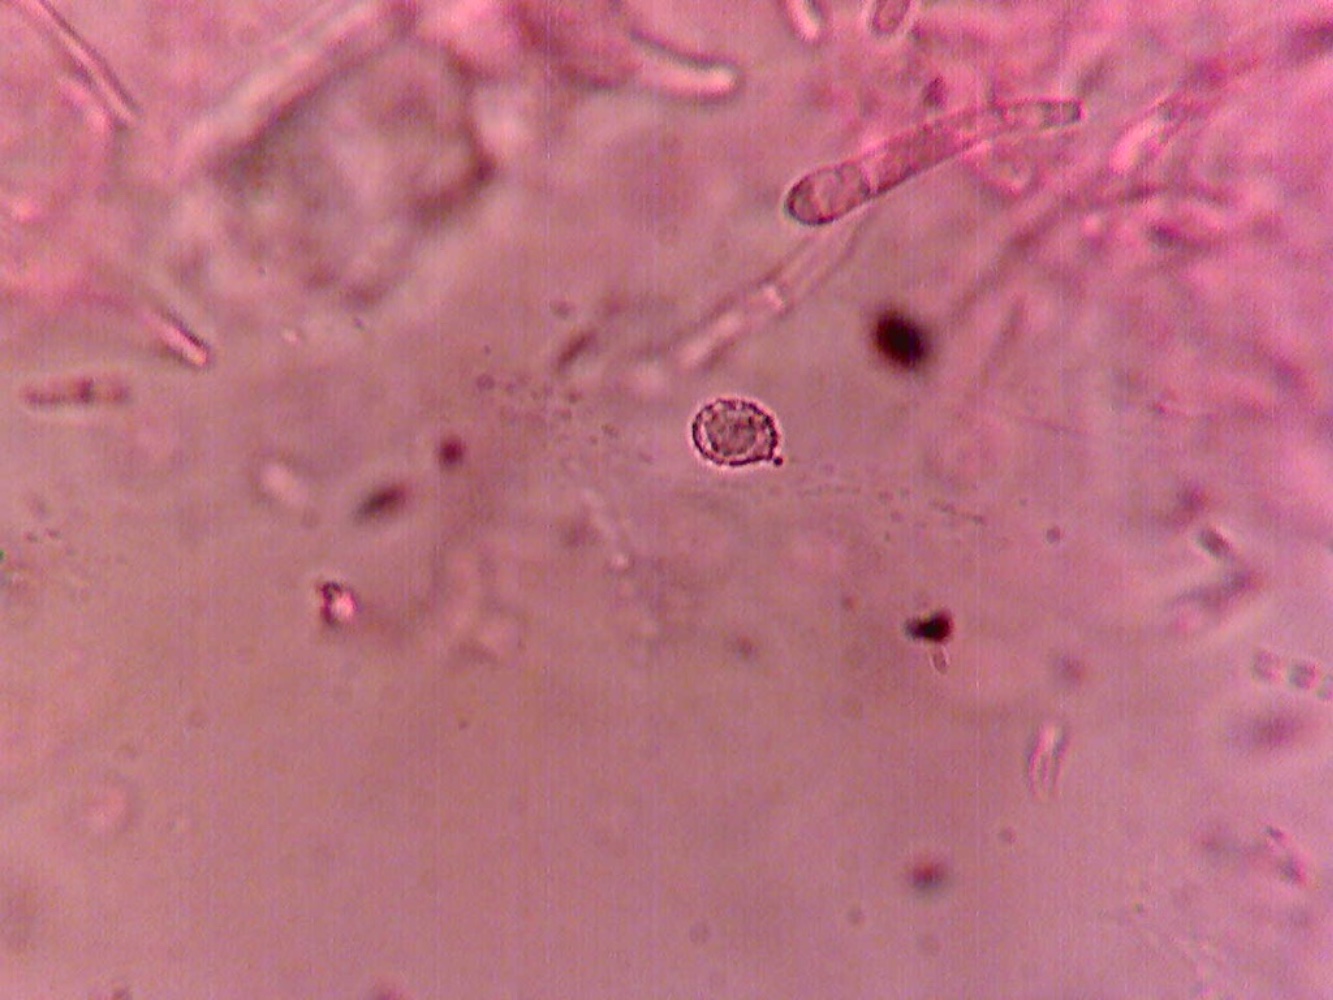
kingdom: Fungi
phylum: Basidiomycota
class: Agaricomycetes
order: Russulales
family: Russulaceae
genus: Russula
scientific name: Russula puellula
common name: gulnende skørhat
